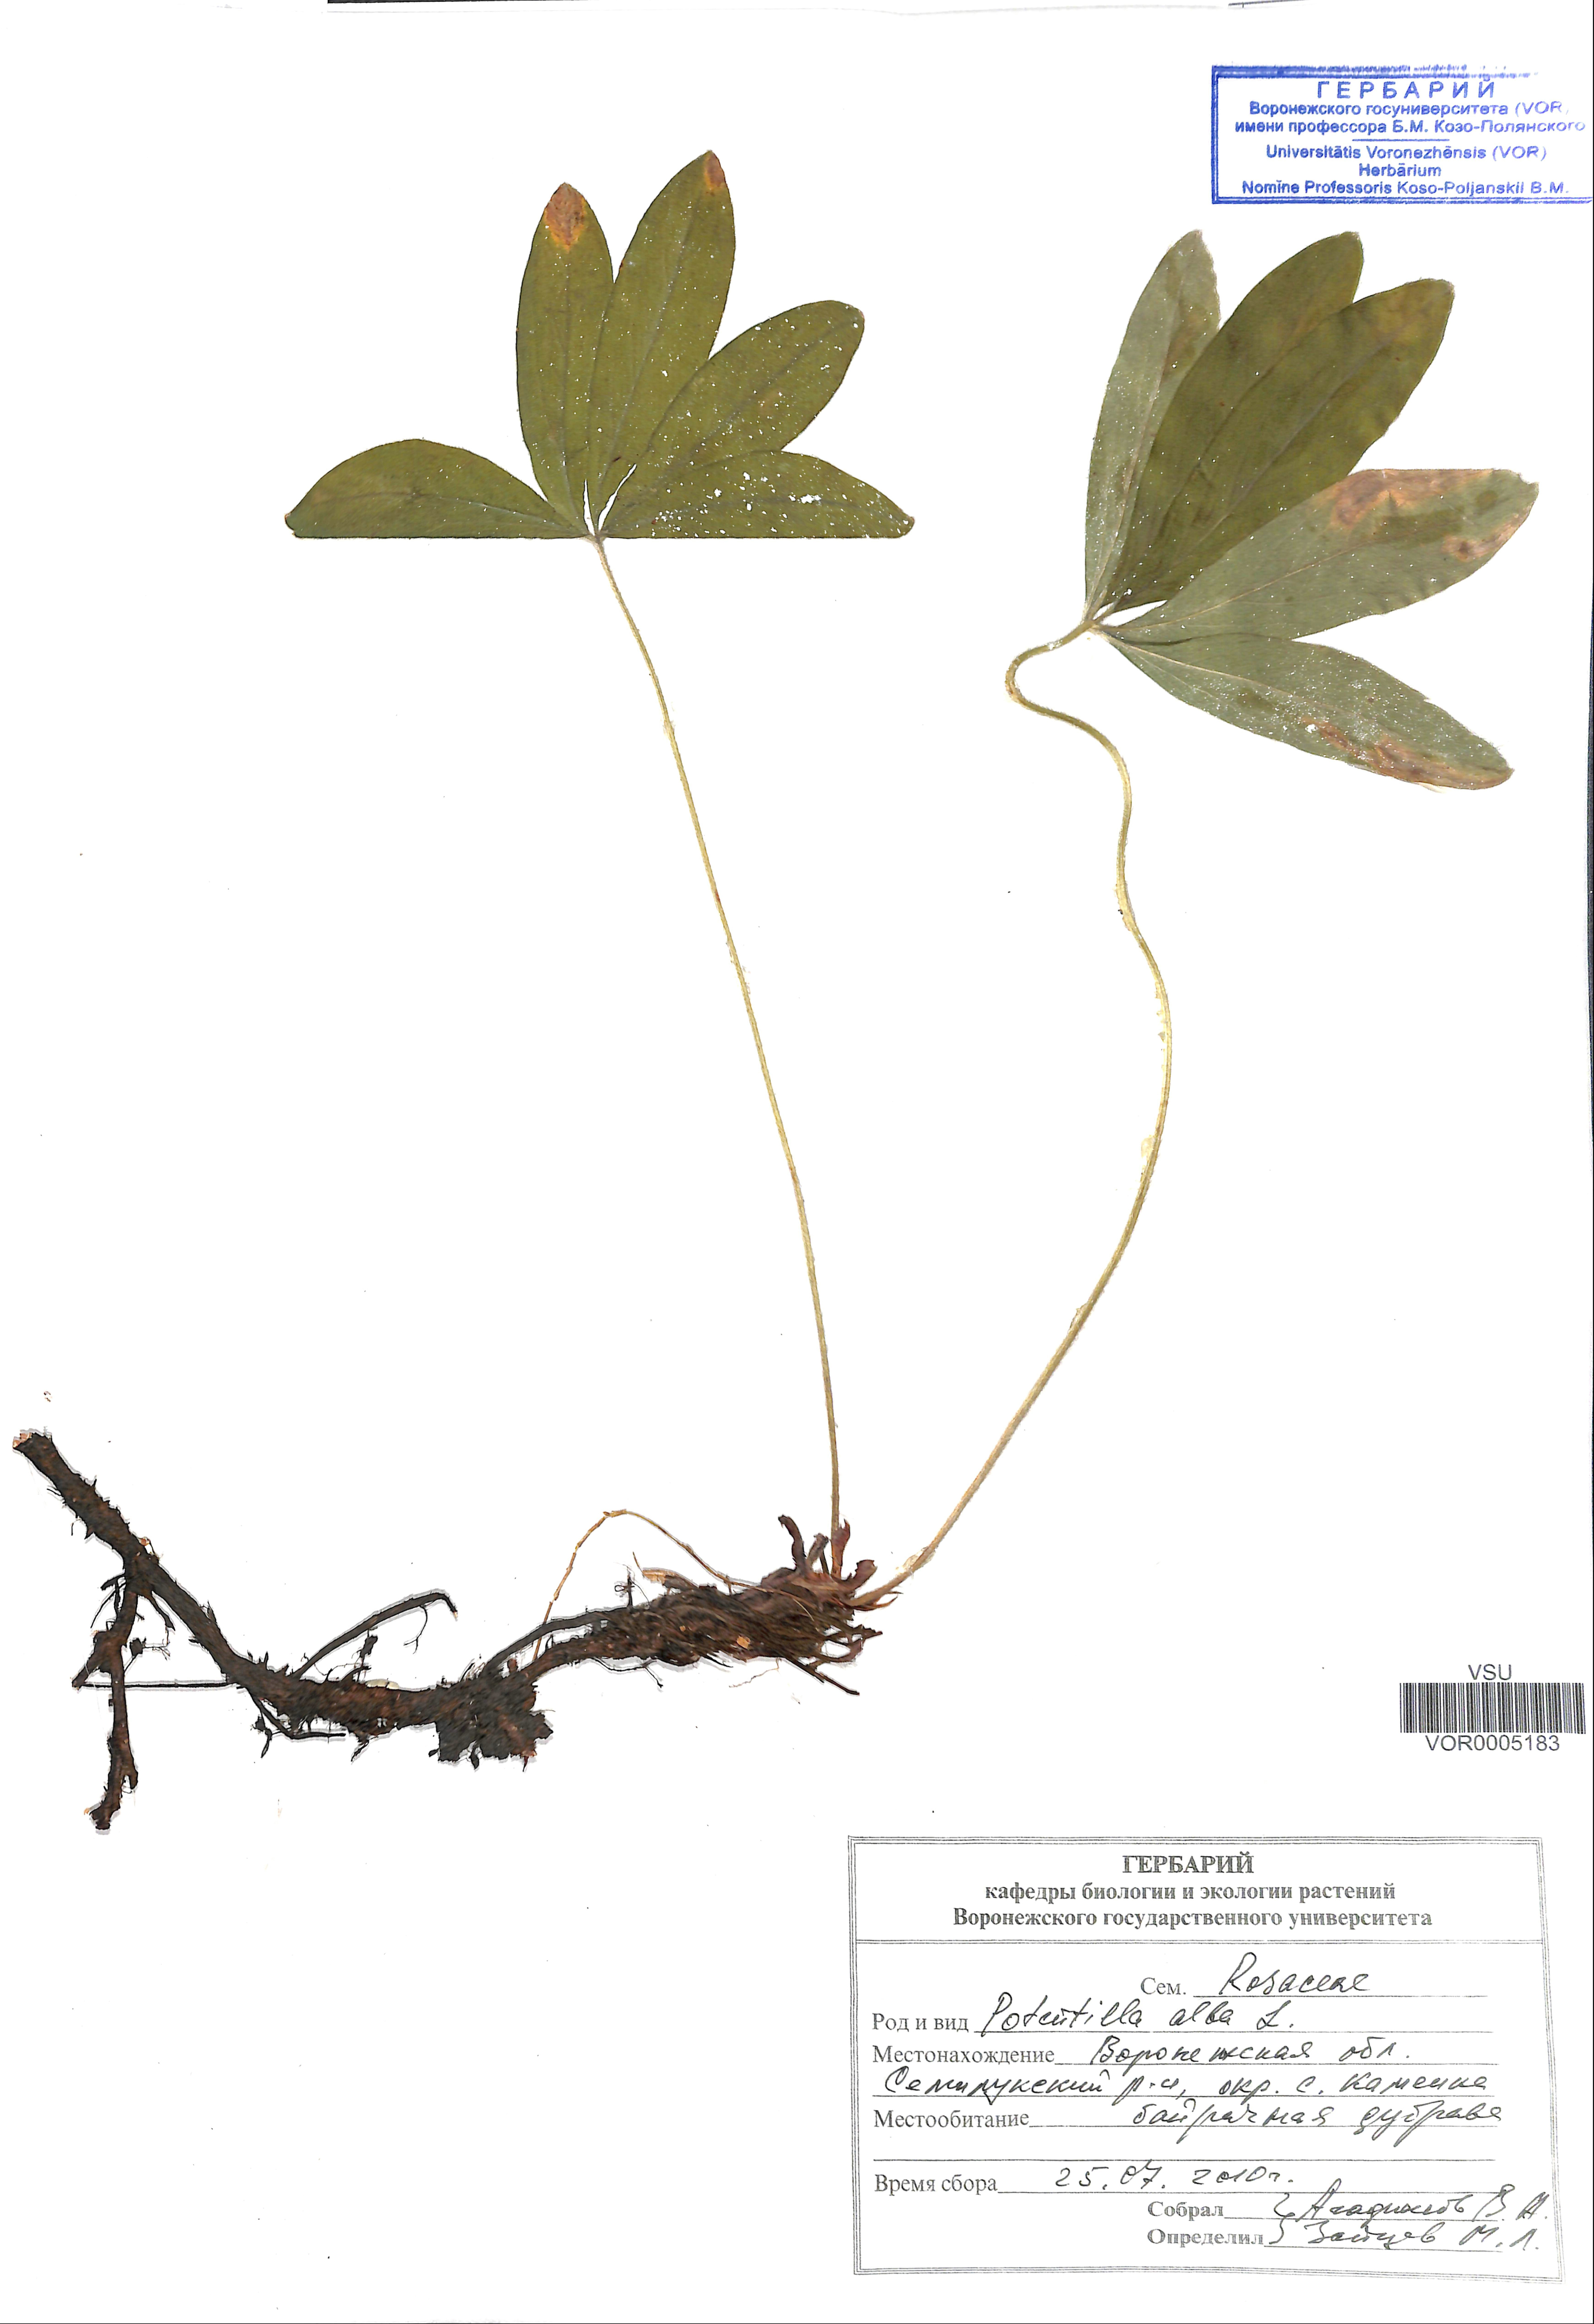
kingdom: Plantae
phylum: Tracheophyta
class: Magnoliopsida
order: Rosales
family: Rosaceae
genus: Potentilla
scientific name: Potentilla alba
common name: White cinquefoil
